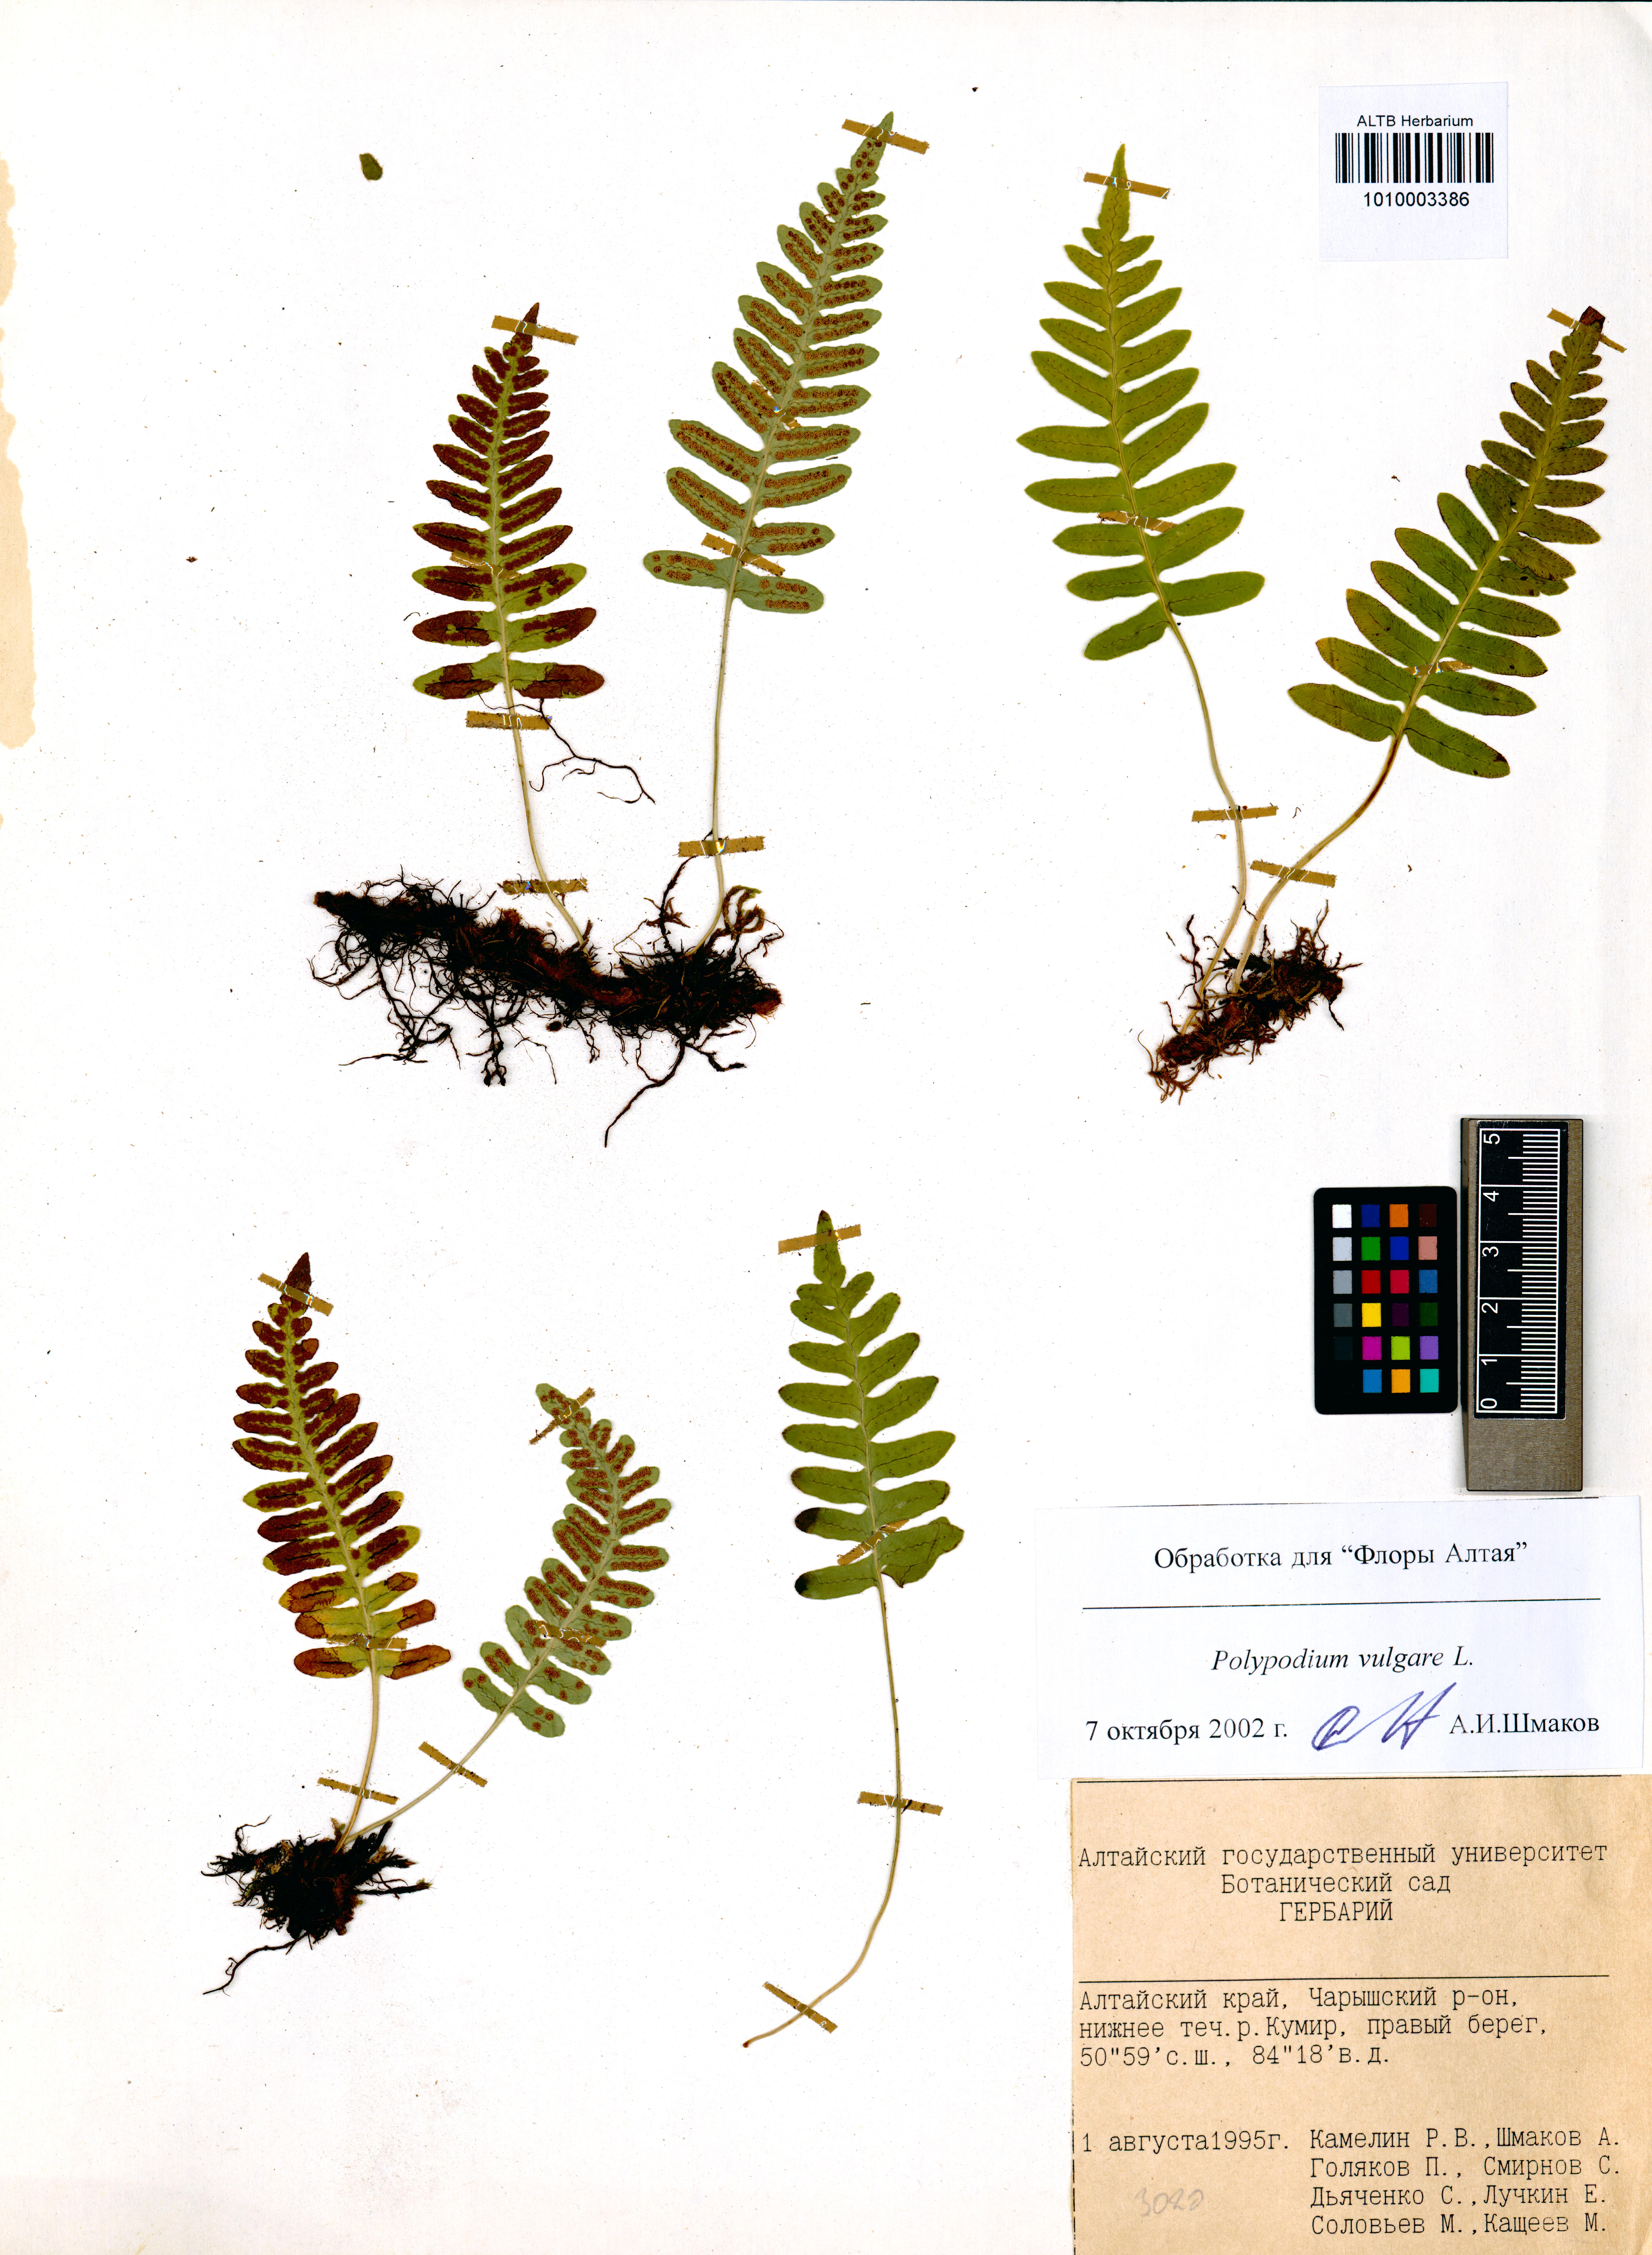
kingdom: Plantae
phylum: Tracheophyta
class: Polypodiopsida
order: Polypodiales
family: Polypodiaceae
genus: Polypodium
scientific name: Polypodium vulgare
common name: Common polypody
